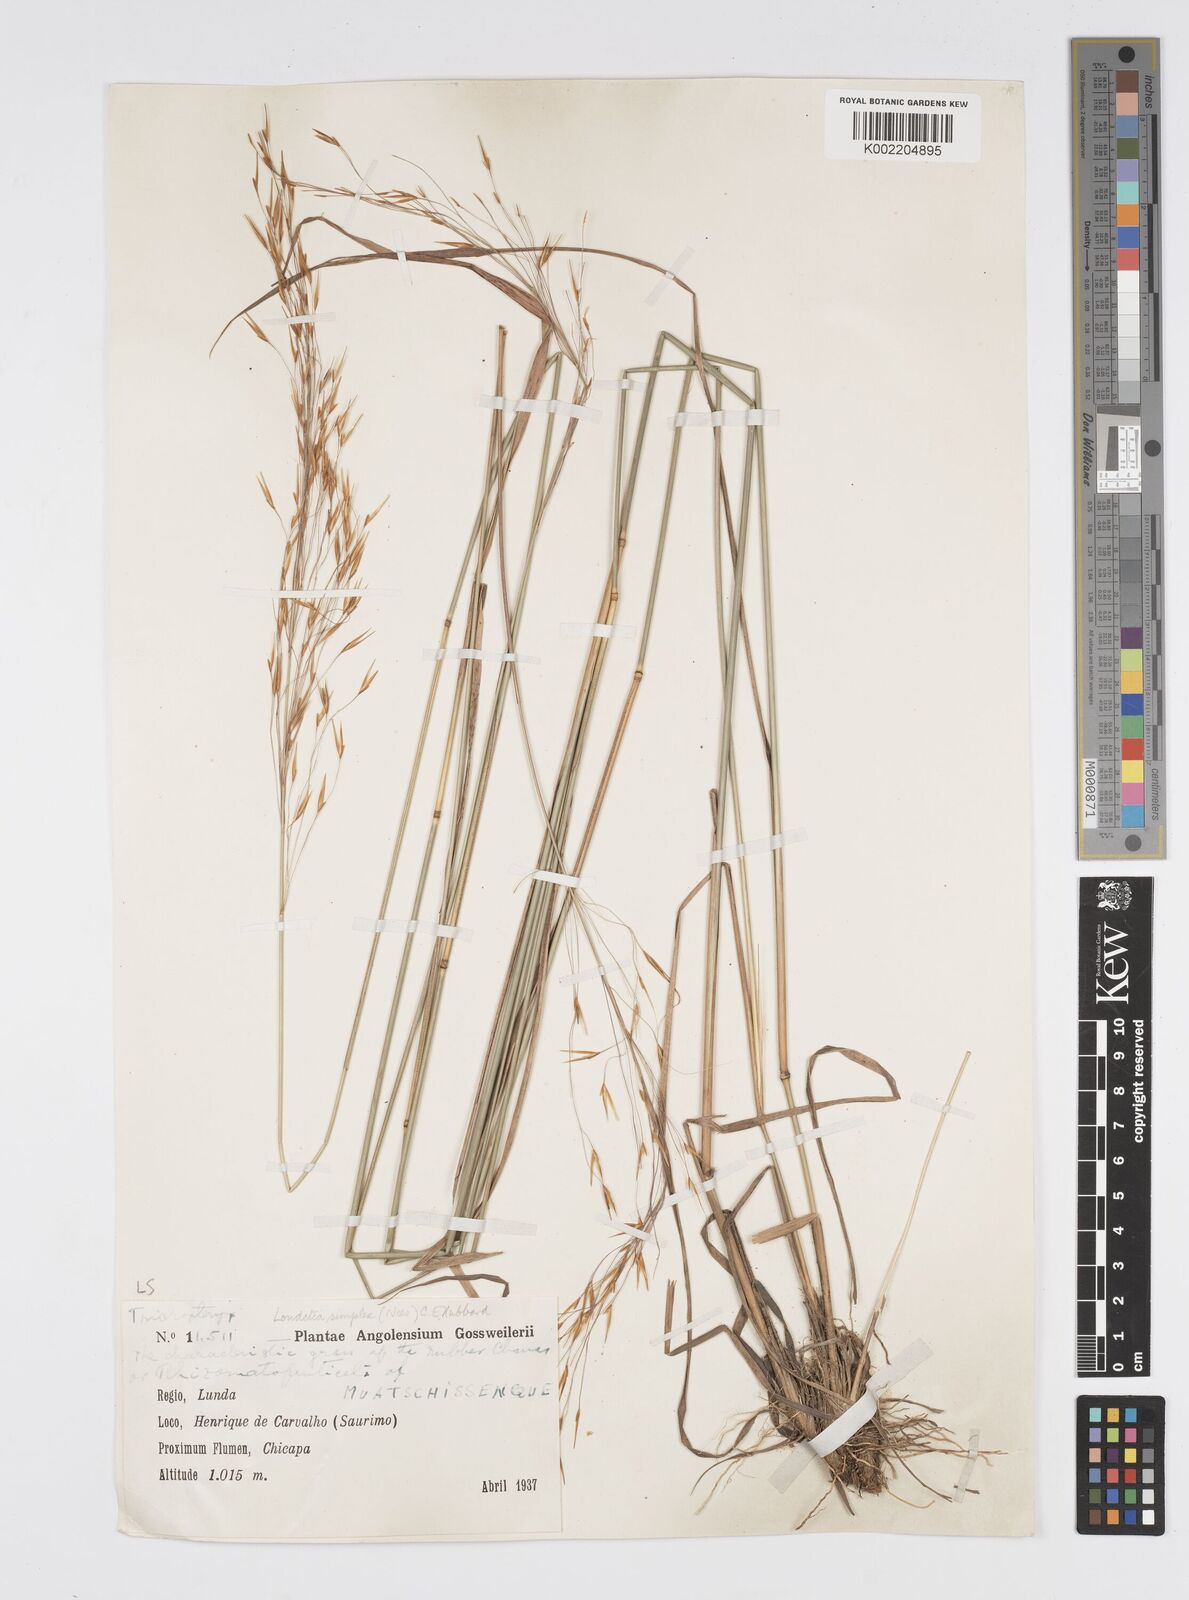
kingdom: Plantae
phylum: Tracheophyta
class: Liliopsida
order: Poales
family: Poaceae
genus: Loudetia
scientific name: Loudetia simplex
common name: Common russet grass
